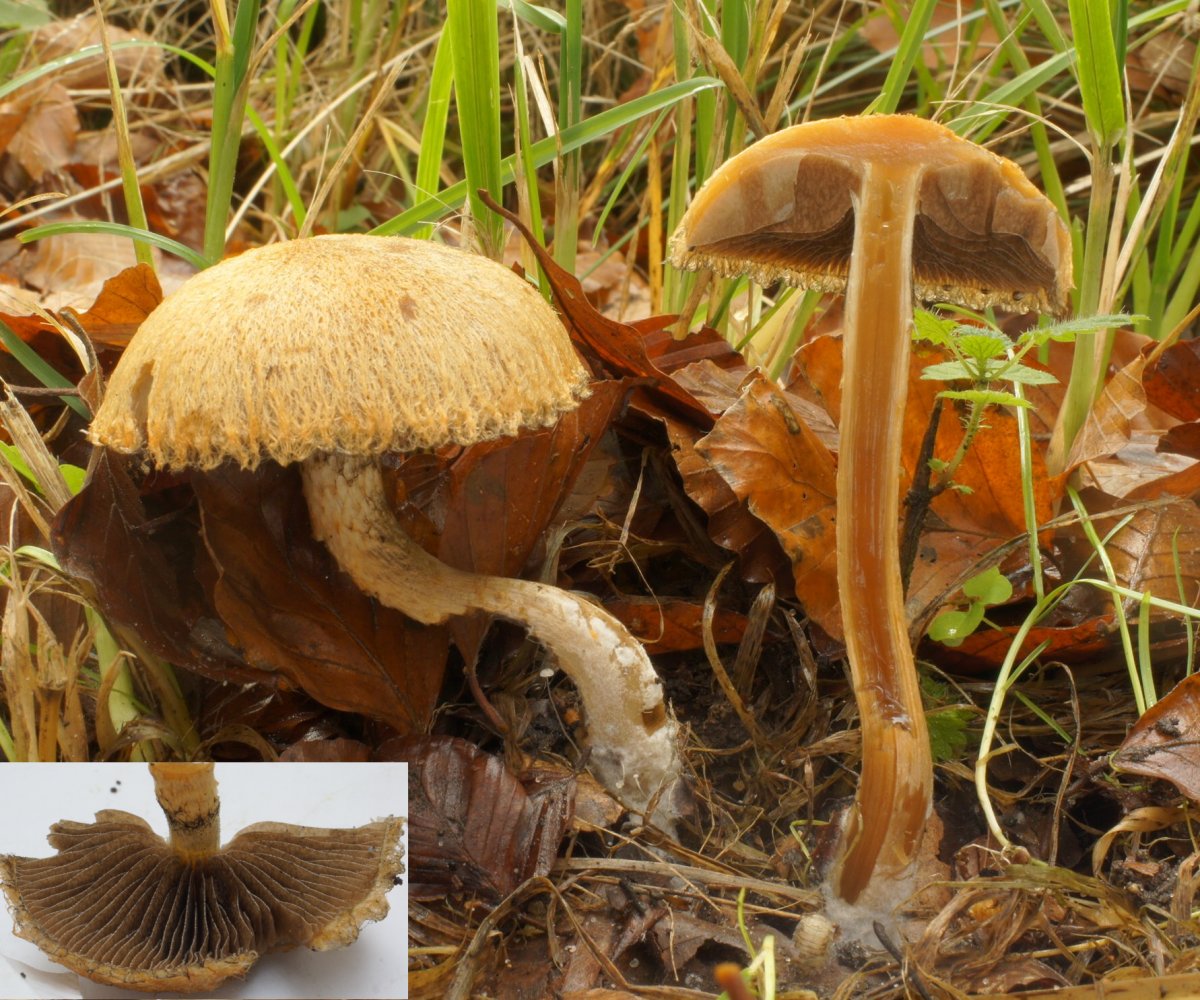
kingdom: Fungi
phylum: Basidiomycota
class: Agaricomycetes
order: Agaricales
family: Psathyrellaceae
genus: Lacrymaria
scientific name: Lacrymaria pyrotricha
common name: ildhåret mørkhat
